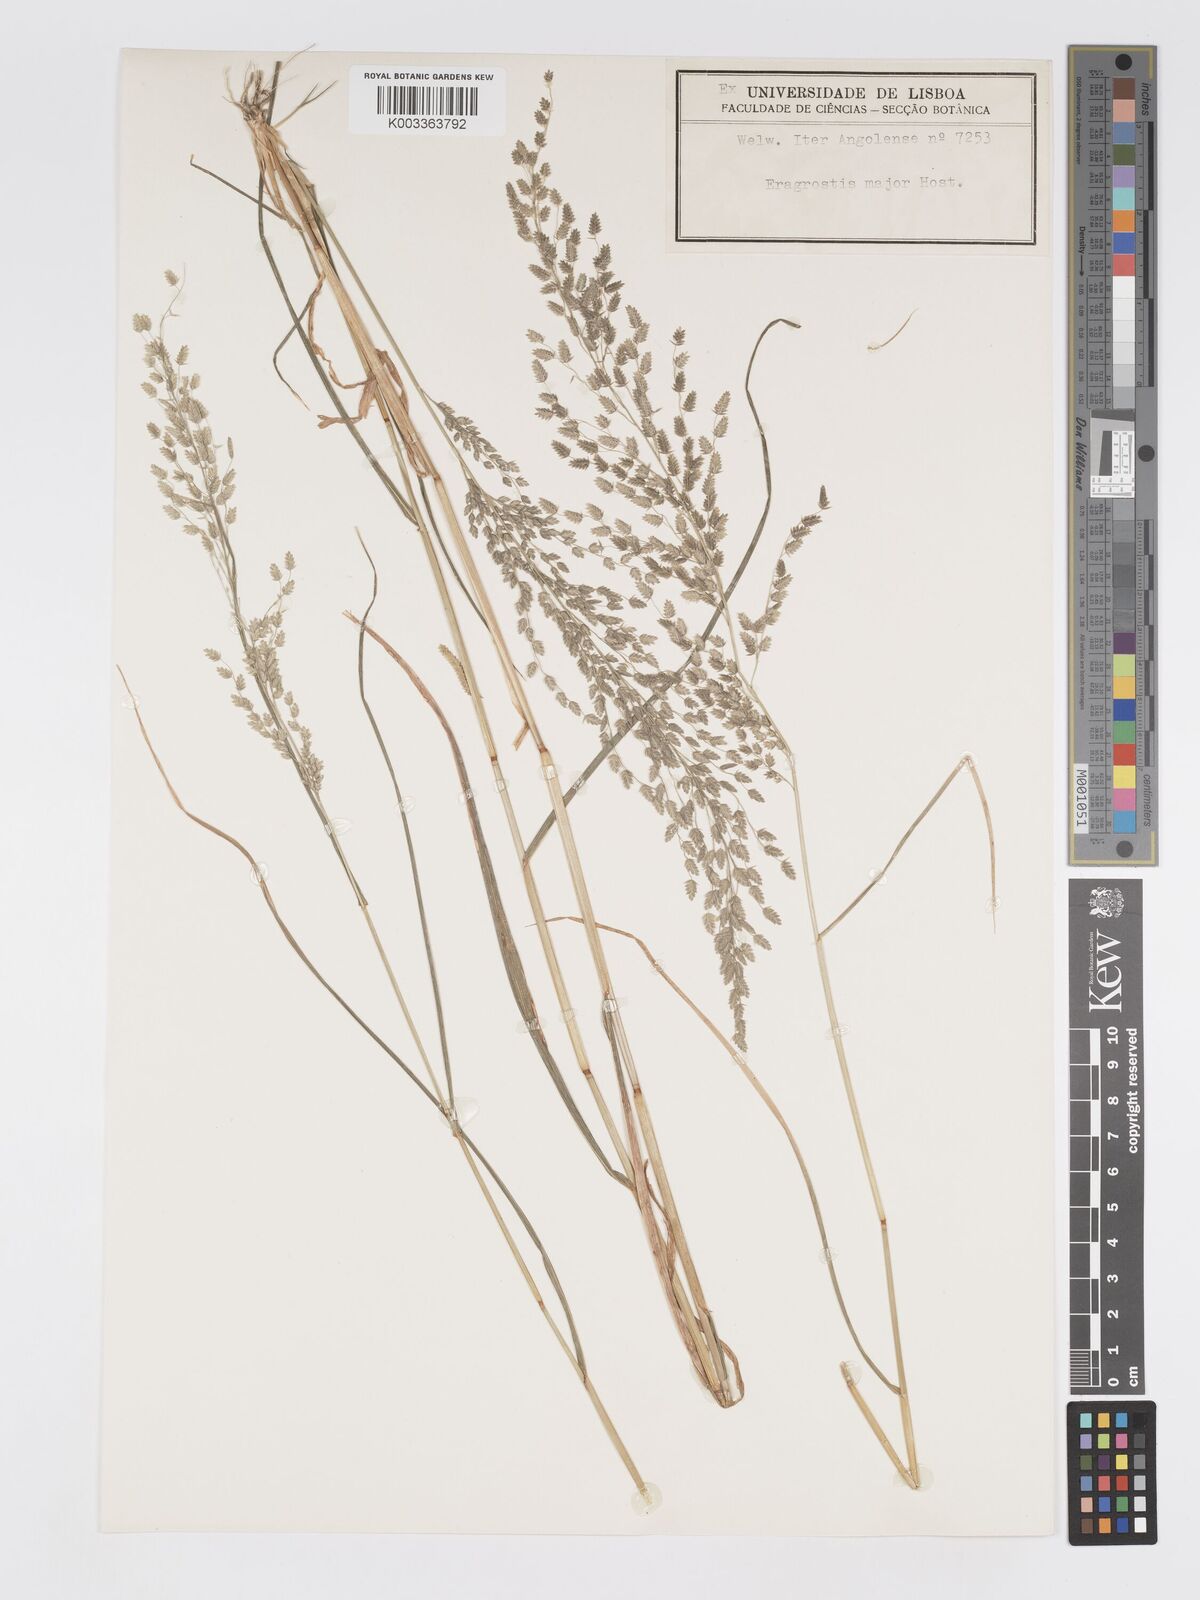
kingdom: Plantae
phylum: Tracheophyta
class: Liliopsida
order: Poales
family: Poaceae
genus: Eragrostis
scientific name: Eragrostis cilianensis
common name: Stinkgrass
